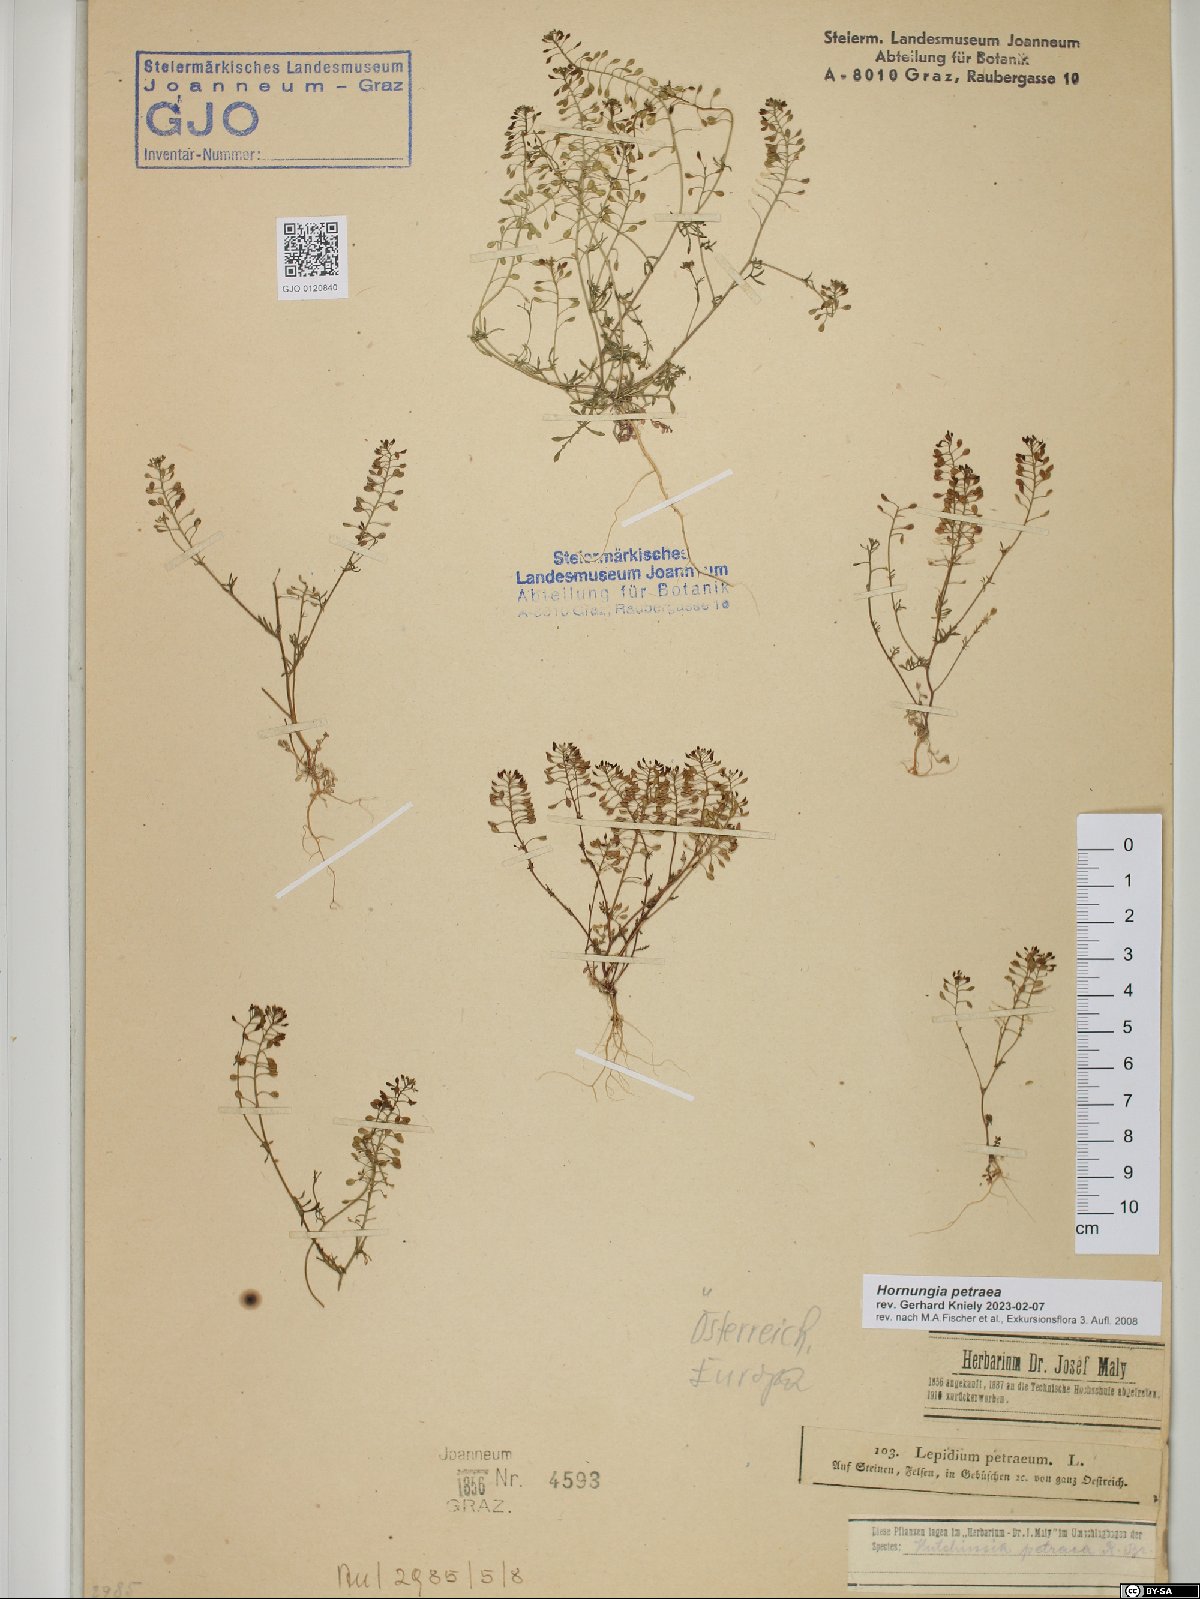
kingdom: Plantae
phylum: Tracheophyta
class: Magnoliopsida
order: Brassicales
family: Brassicaceae
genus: Hornungia
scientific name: Hornungia petraea
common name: Hutchinsia
